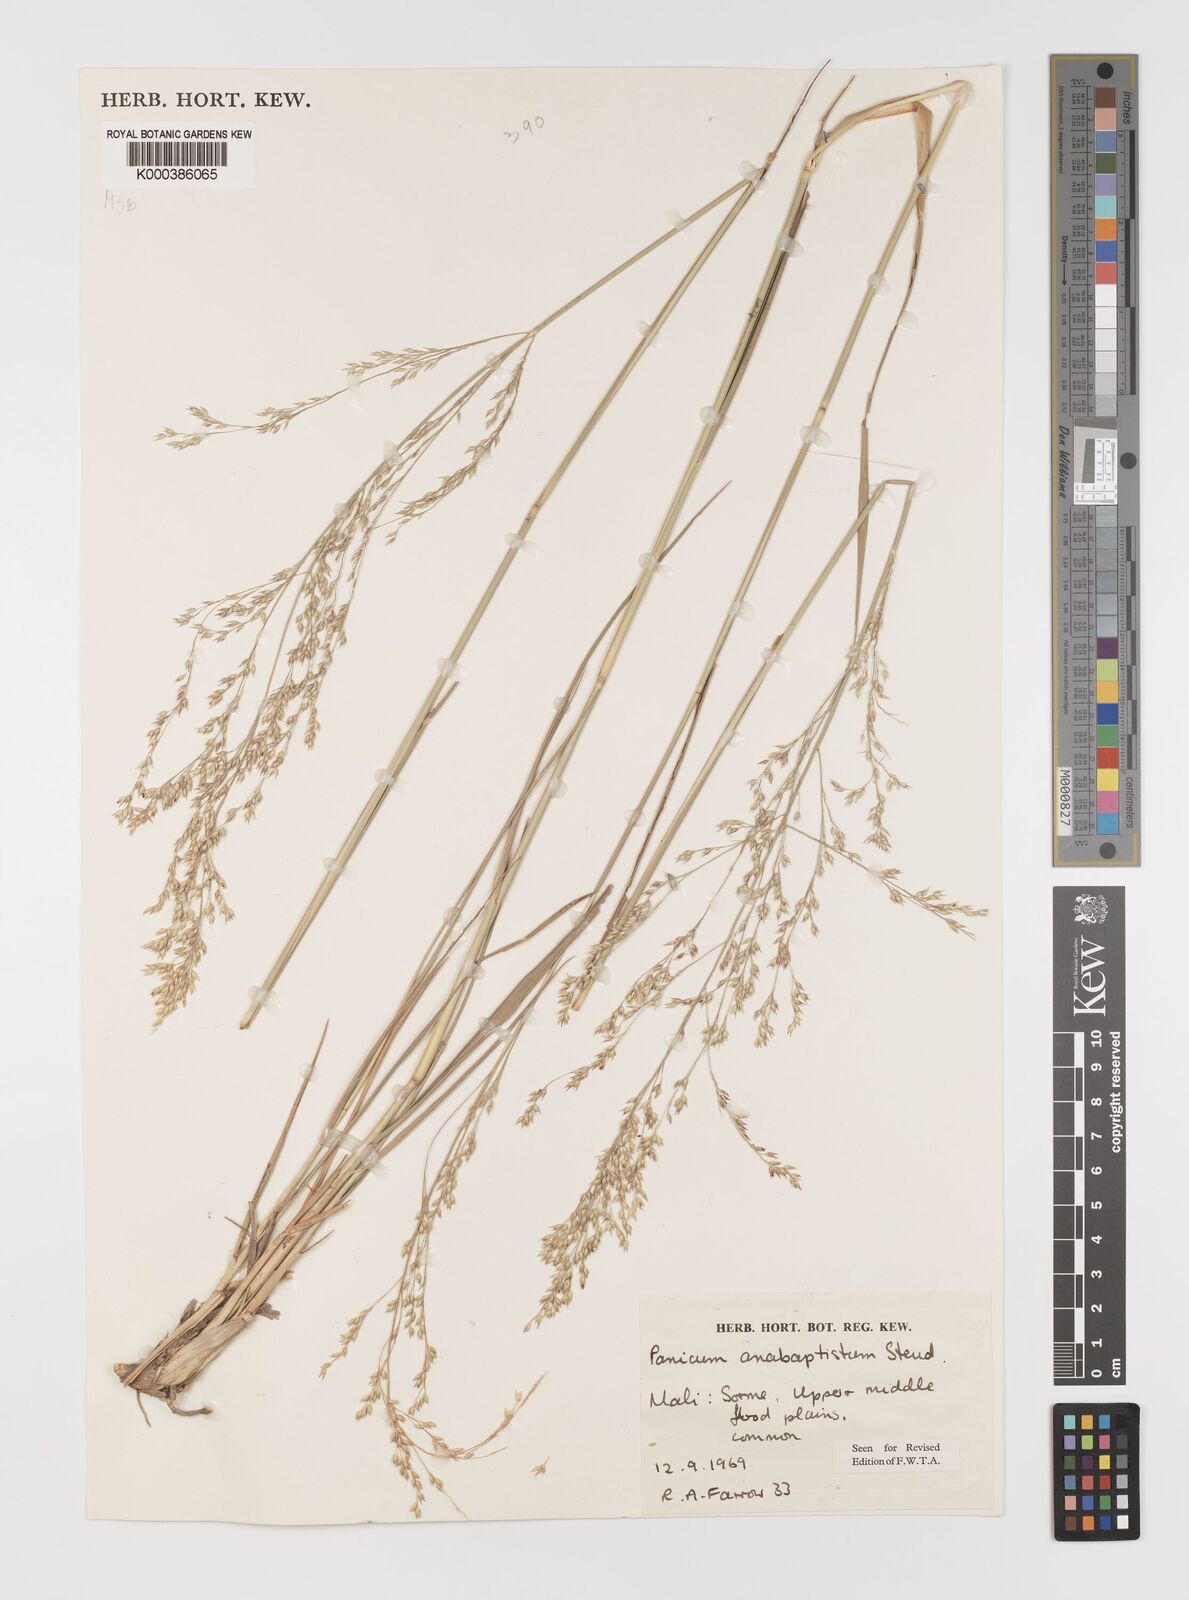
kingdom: Plantae
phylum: Tracheophyta
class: Liliopsida
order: Poales
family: Poaceae
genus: Panicum
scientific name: Panicum anabaptistum
